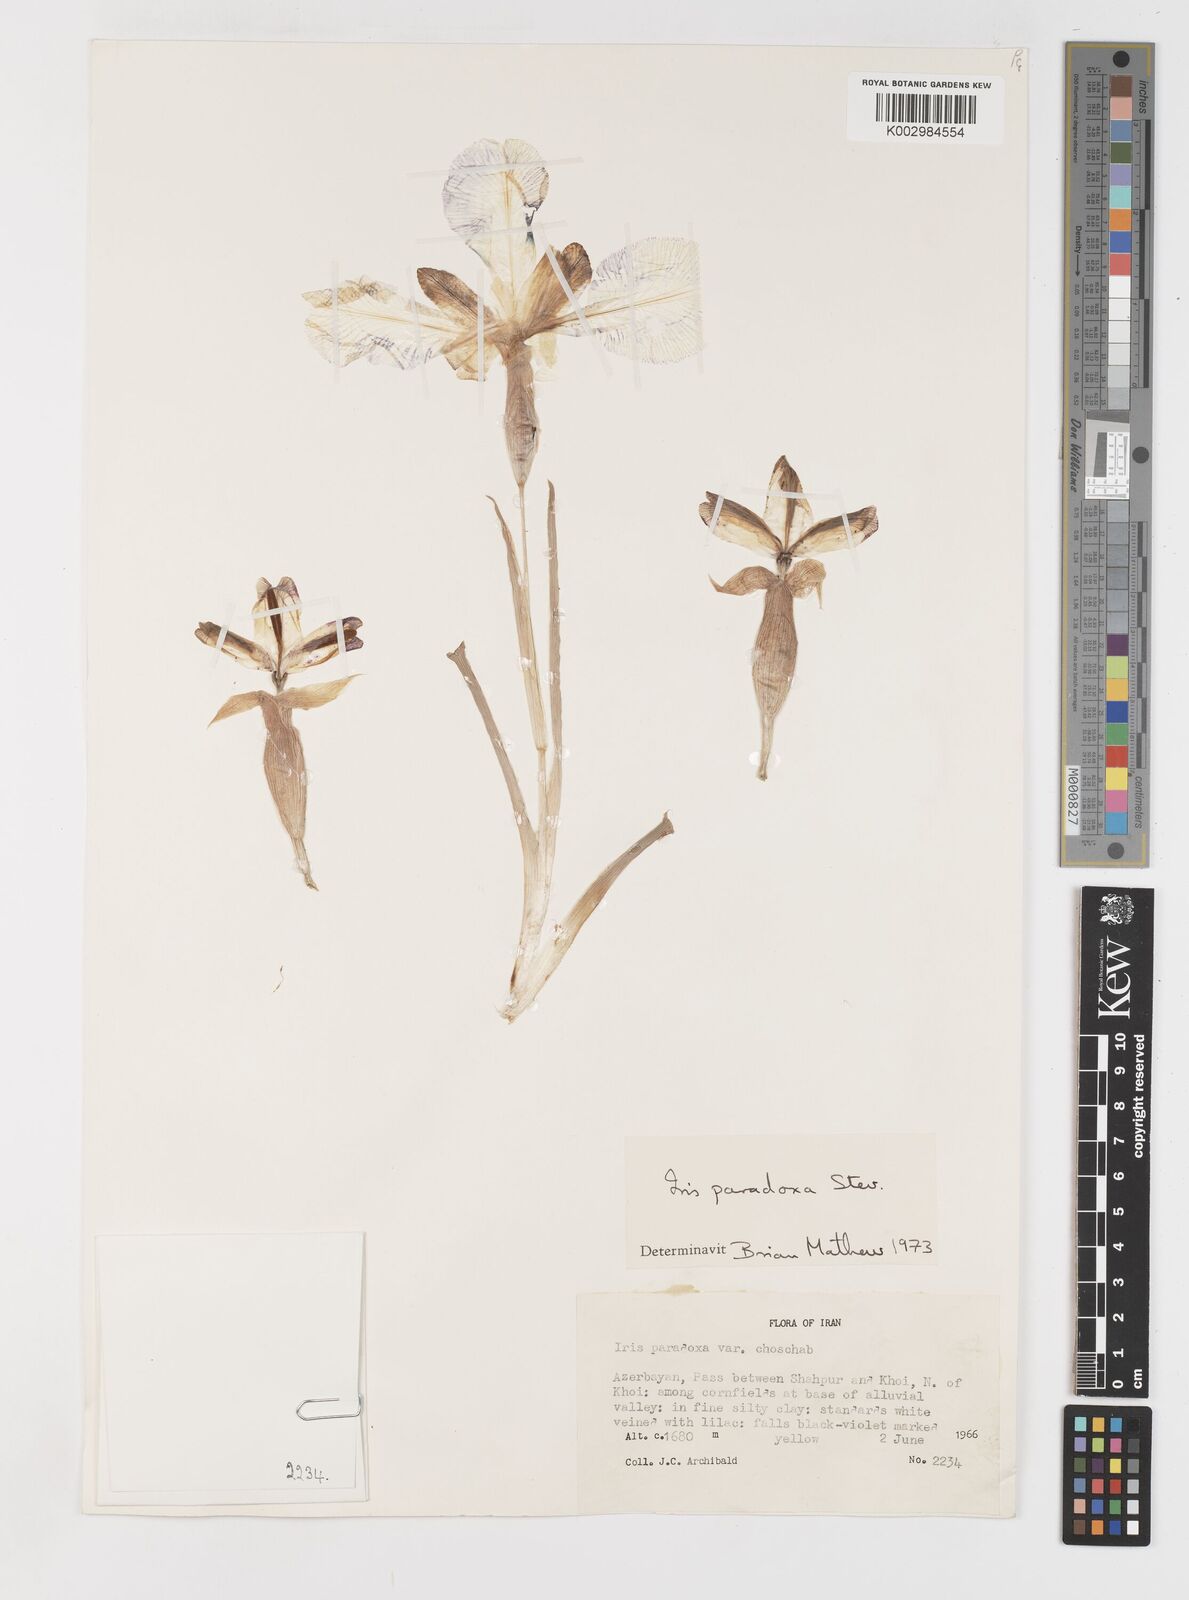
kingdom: Plantae
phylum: Tracheophyta
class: Liliopsida
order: Asparagales
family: Iridaceae
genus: Iris
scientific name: Iris paradoxa
